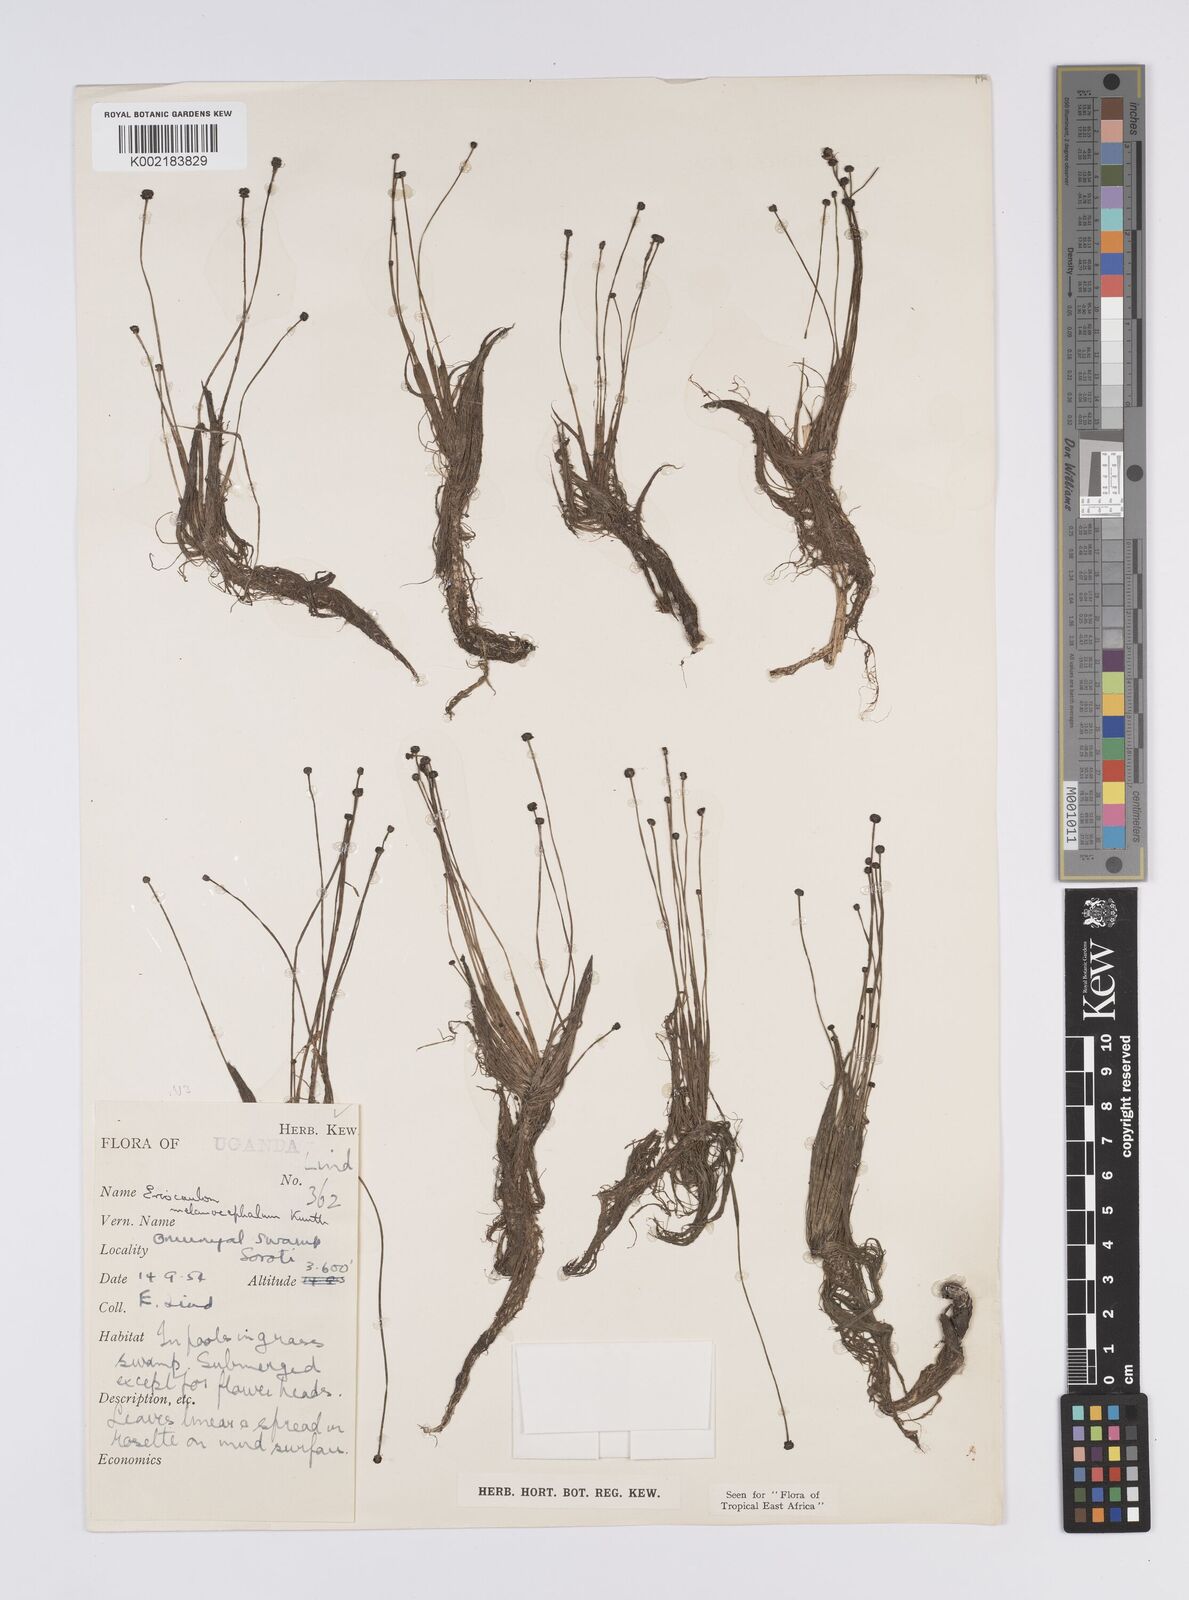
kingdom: Plantae
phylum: Tracheophyta
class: Liliopsida
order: Poales
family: Eriocaulaceae
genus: Eriocaulon
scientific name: Eriocaulon setaceum
